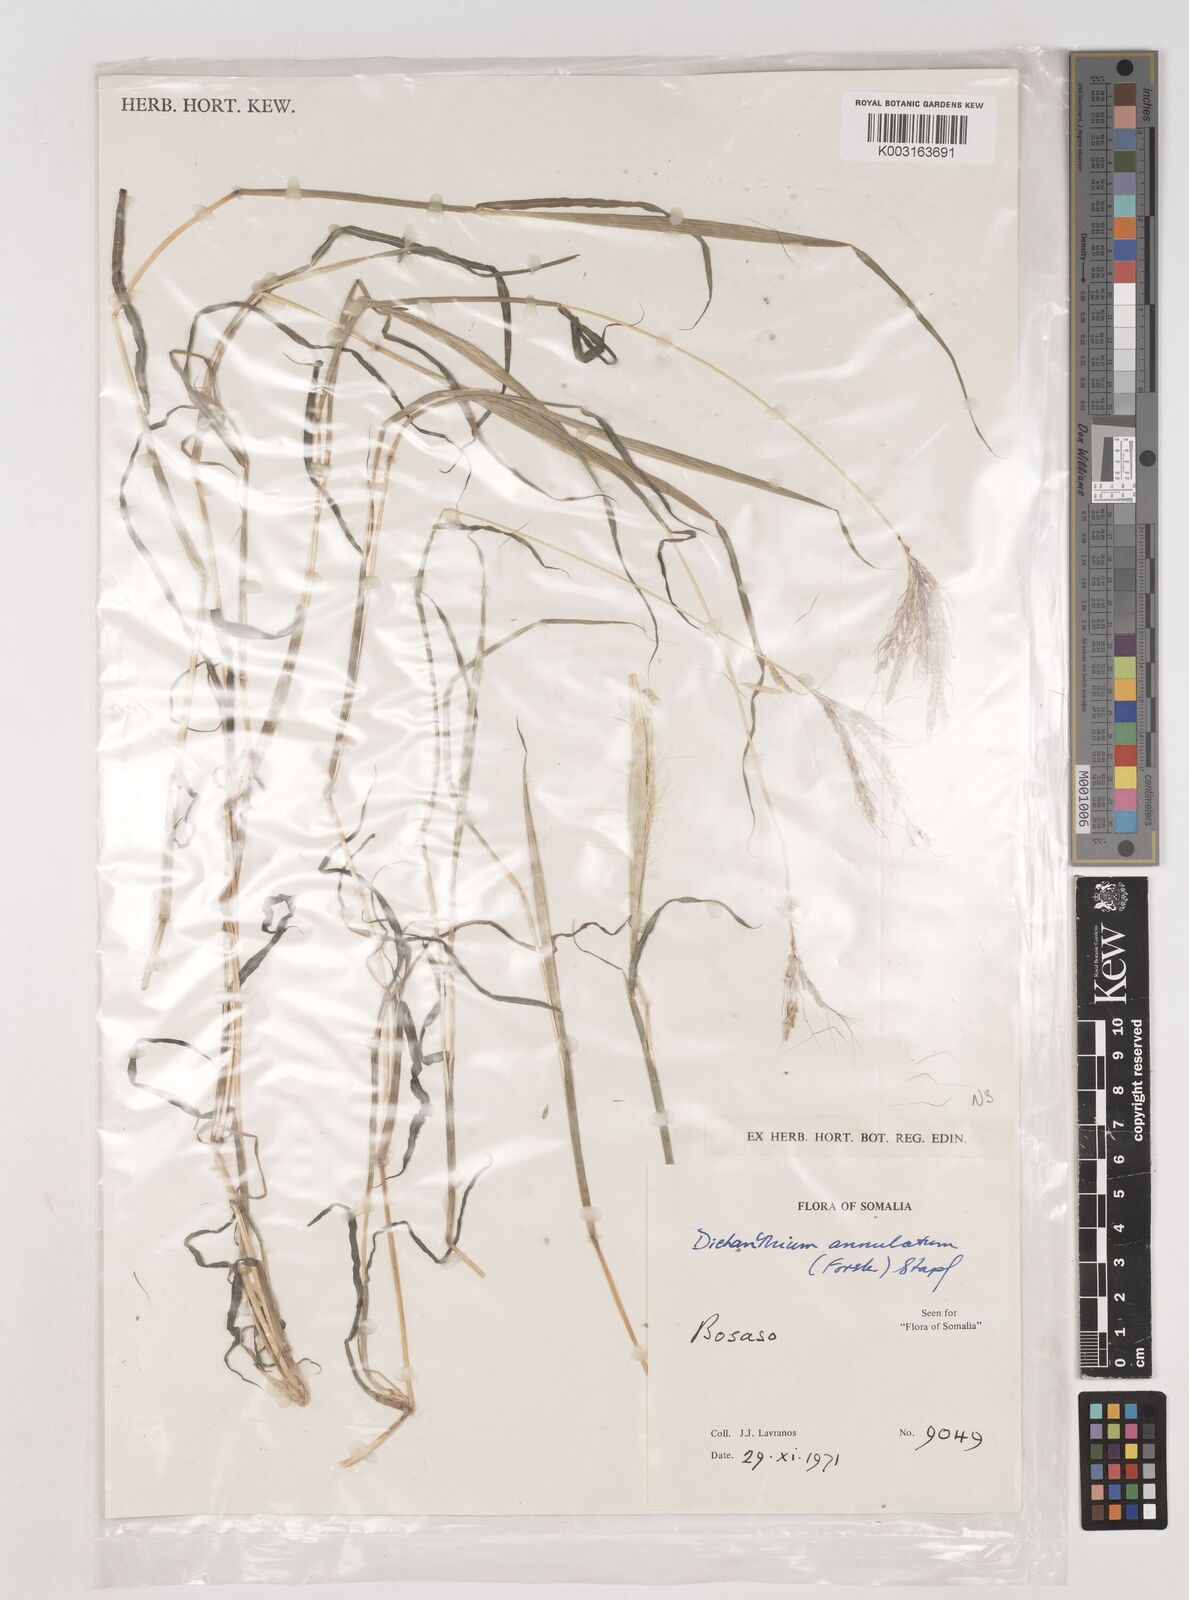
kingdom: Plantae
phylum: Tracheophyta
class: Liliopsida
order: Poales
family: Poaceae
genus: Dichanthium
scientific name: Dichanthium annulatum
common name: Kleberg's bluestem
